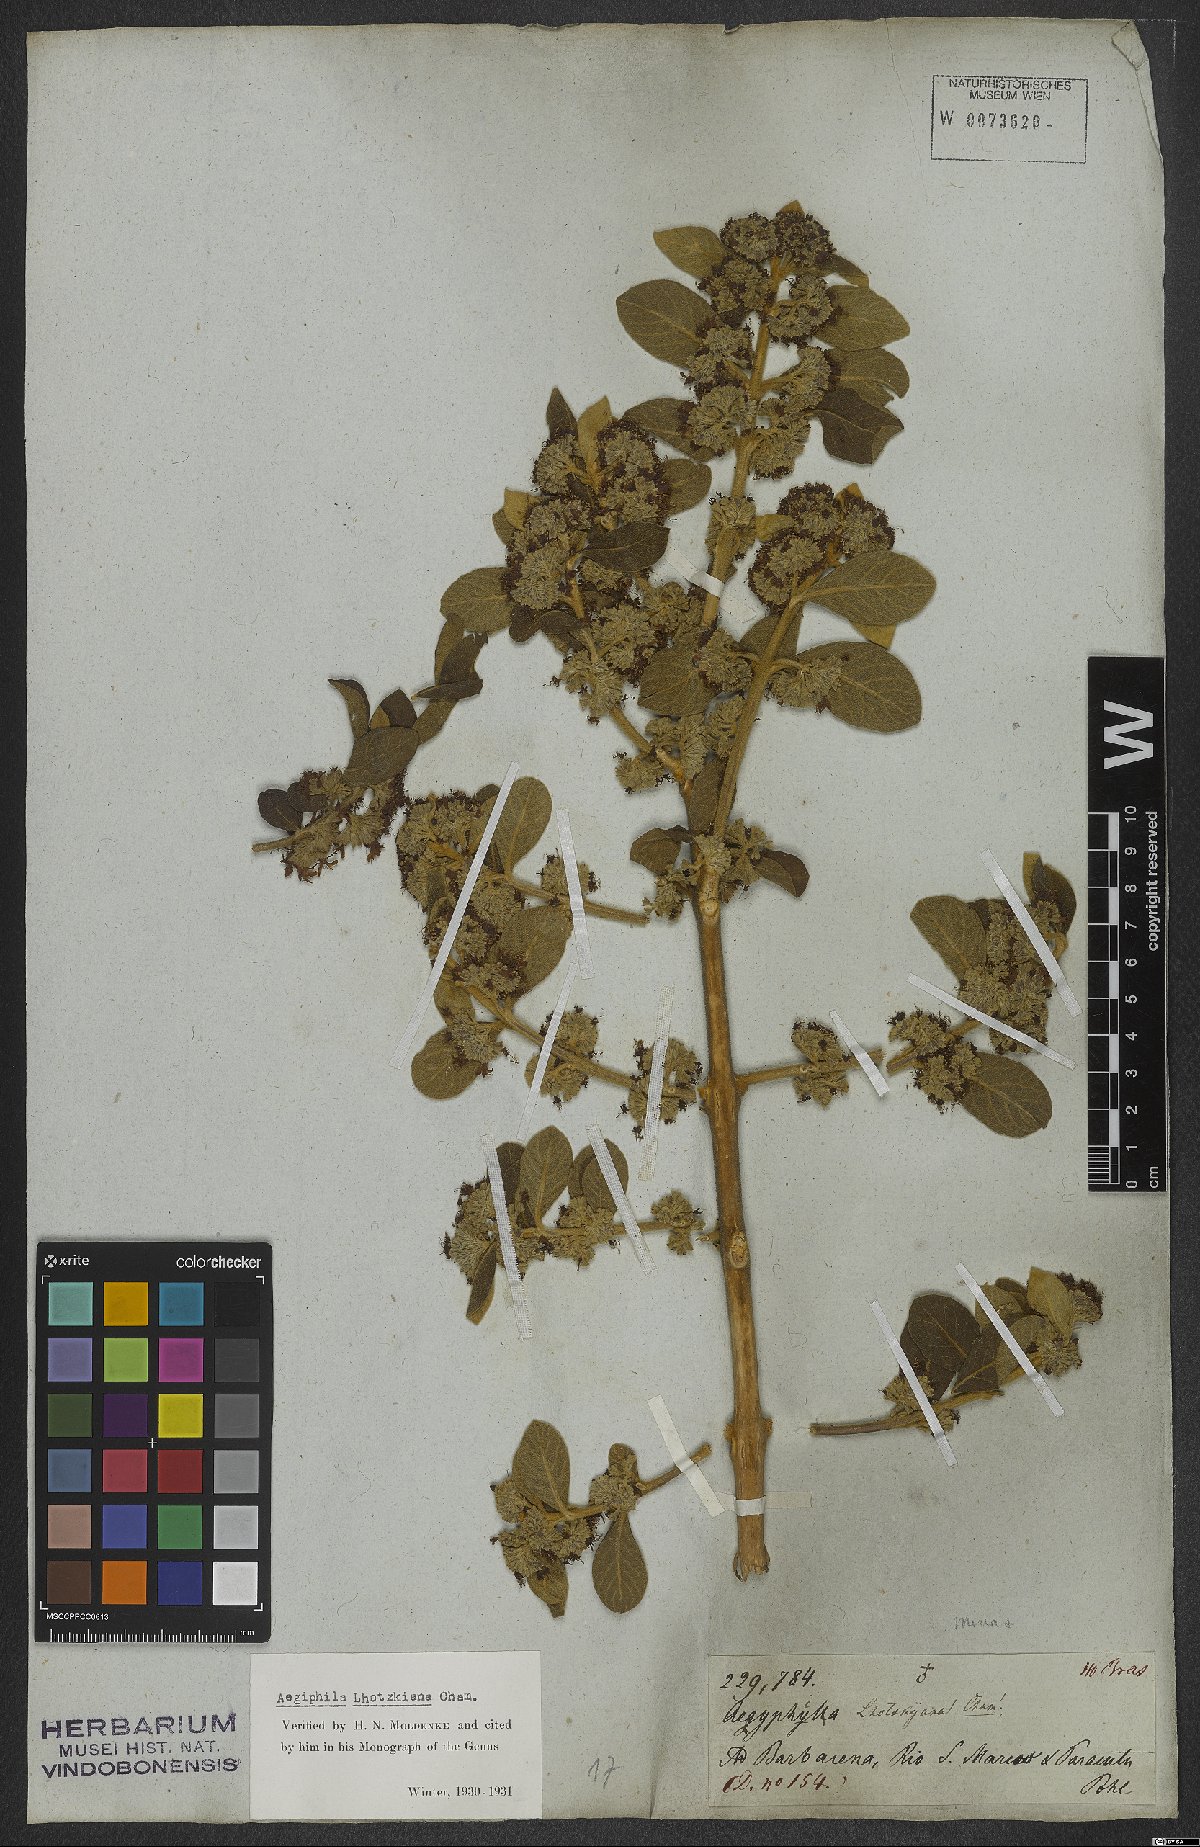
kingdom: Plantae
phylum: Tracheophyta
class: Magnoliopsida
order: Lamiales
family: Lamiaceae
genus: Aegiphila
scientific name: Aegiphila lhotskiana
